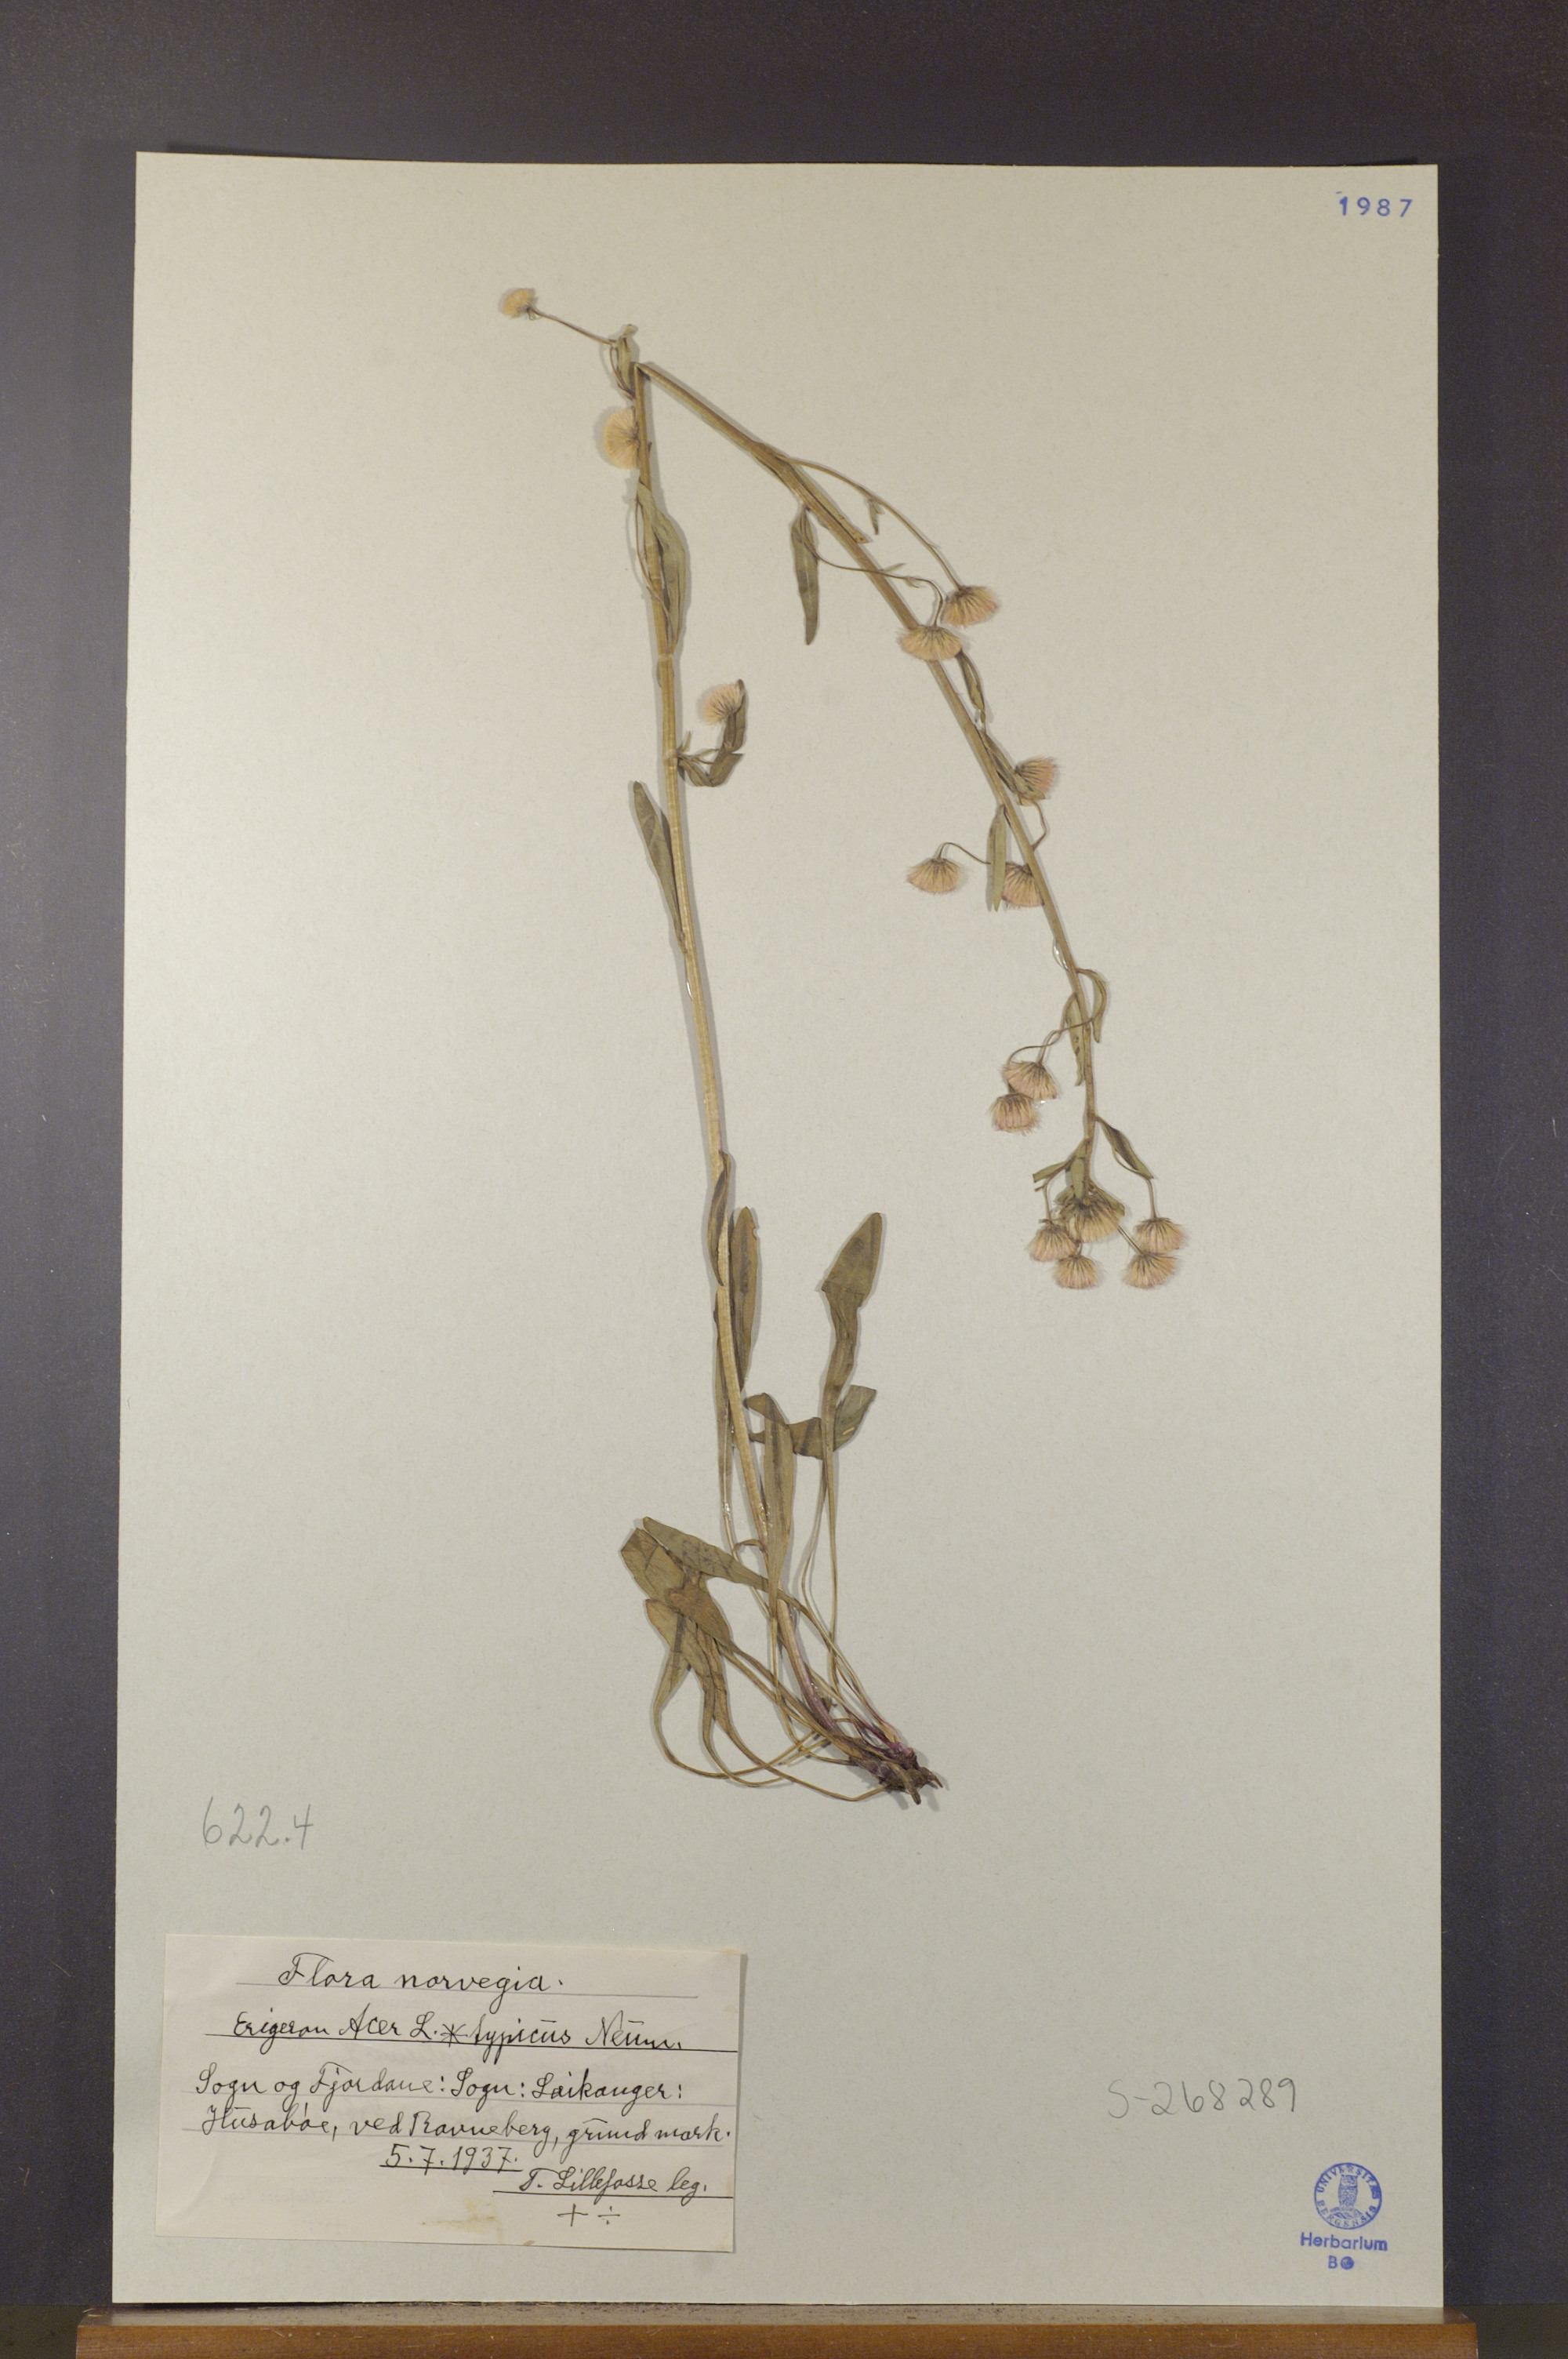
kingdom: Plantae
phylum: Tracheophyta
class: Magnoliopsida
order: Asterales
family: Asteraceae
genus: Erigeron
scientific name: Erigeron acris
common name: Blue fleabane
